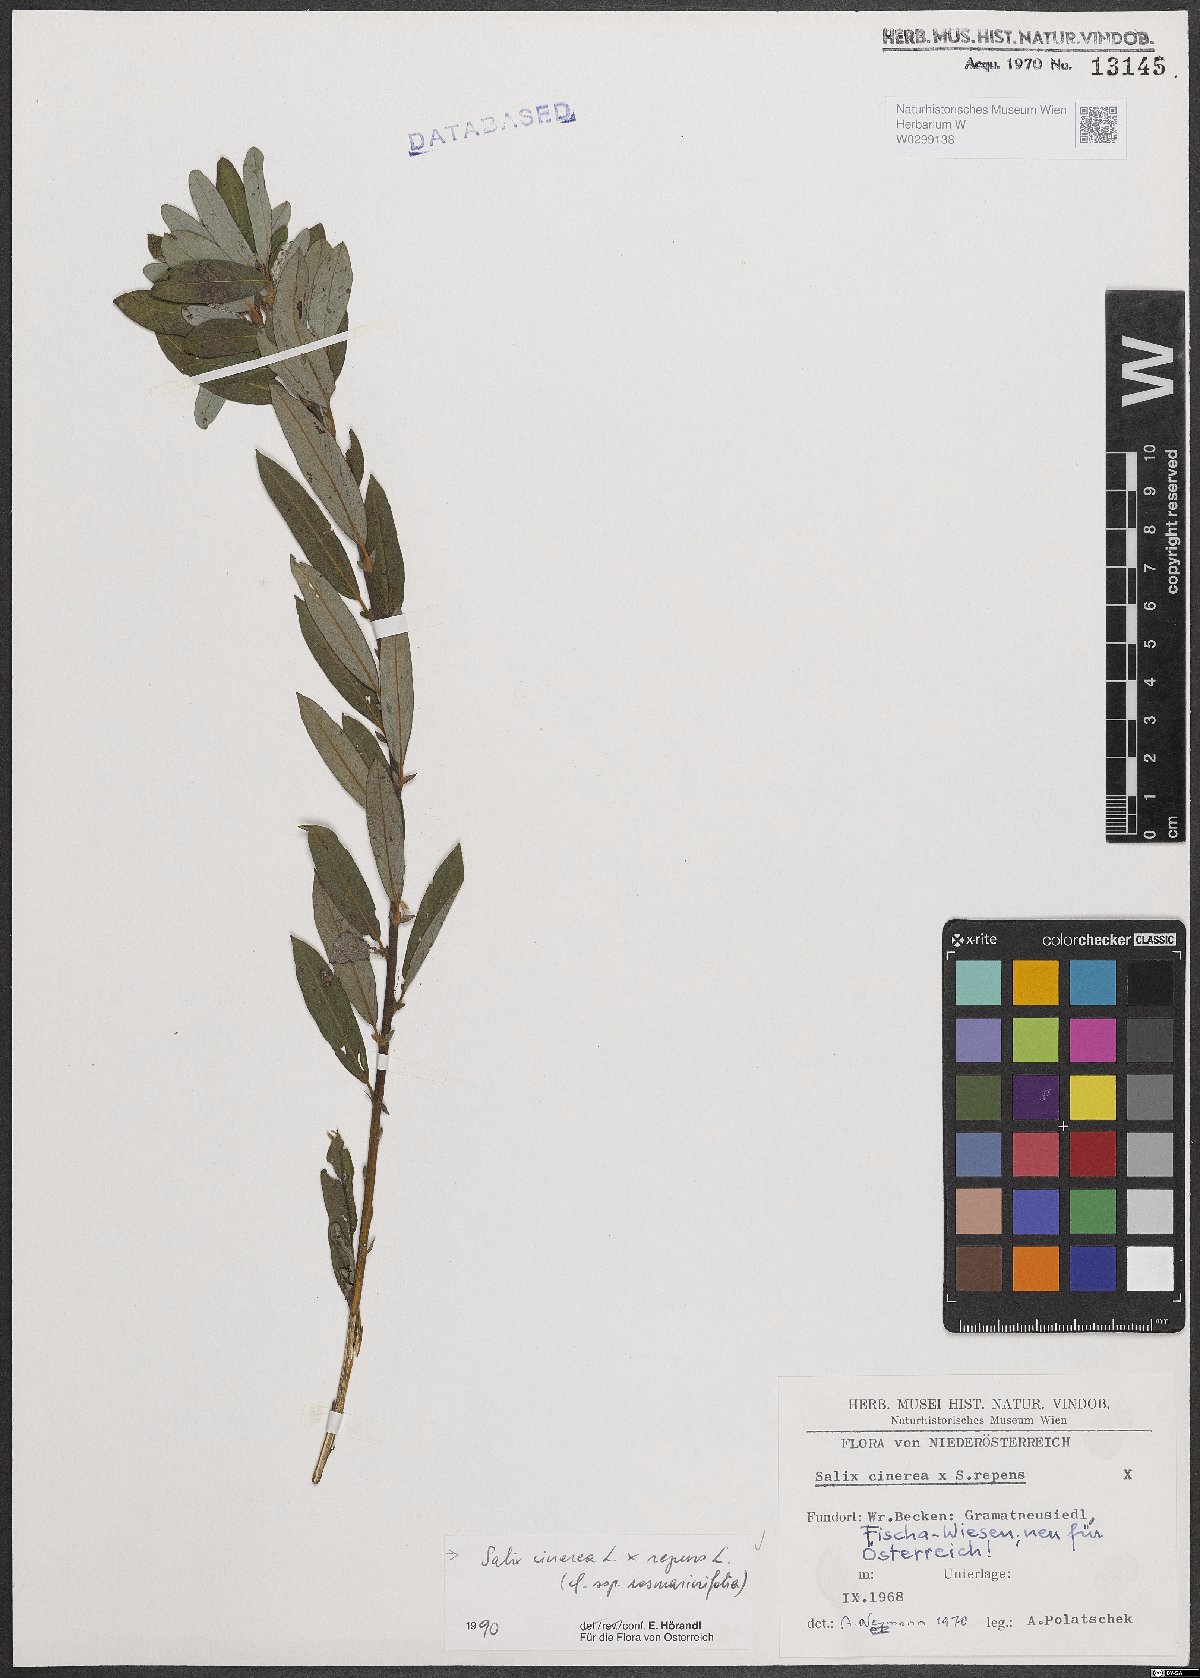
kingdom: Plantae
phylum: Tracheophyta
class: Magnoliopsida
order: Malpighiales
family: Salicaceae
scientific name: Salicaceae
